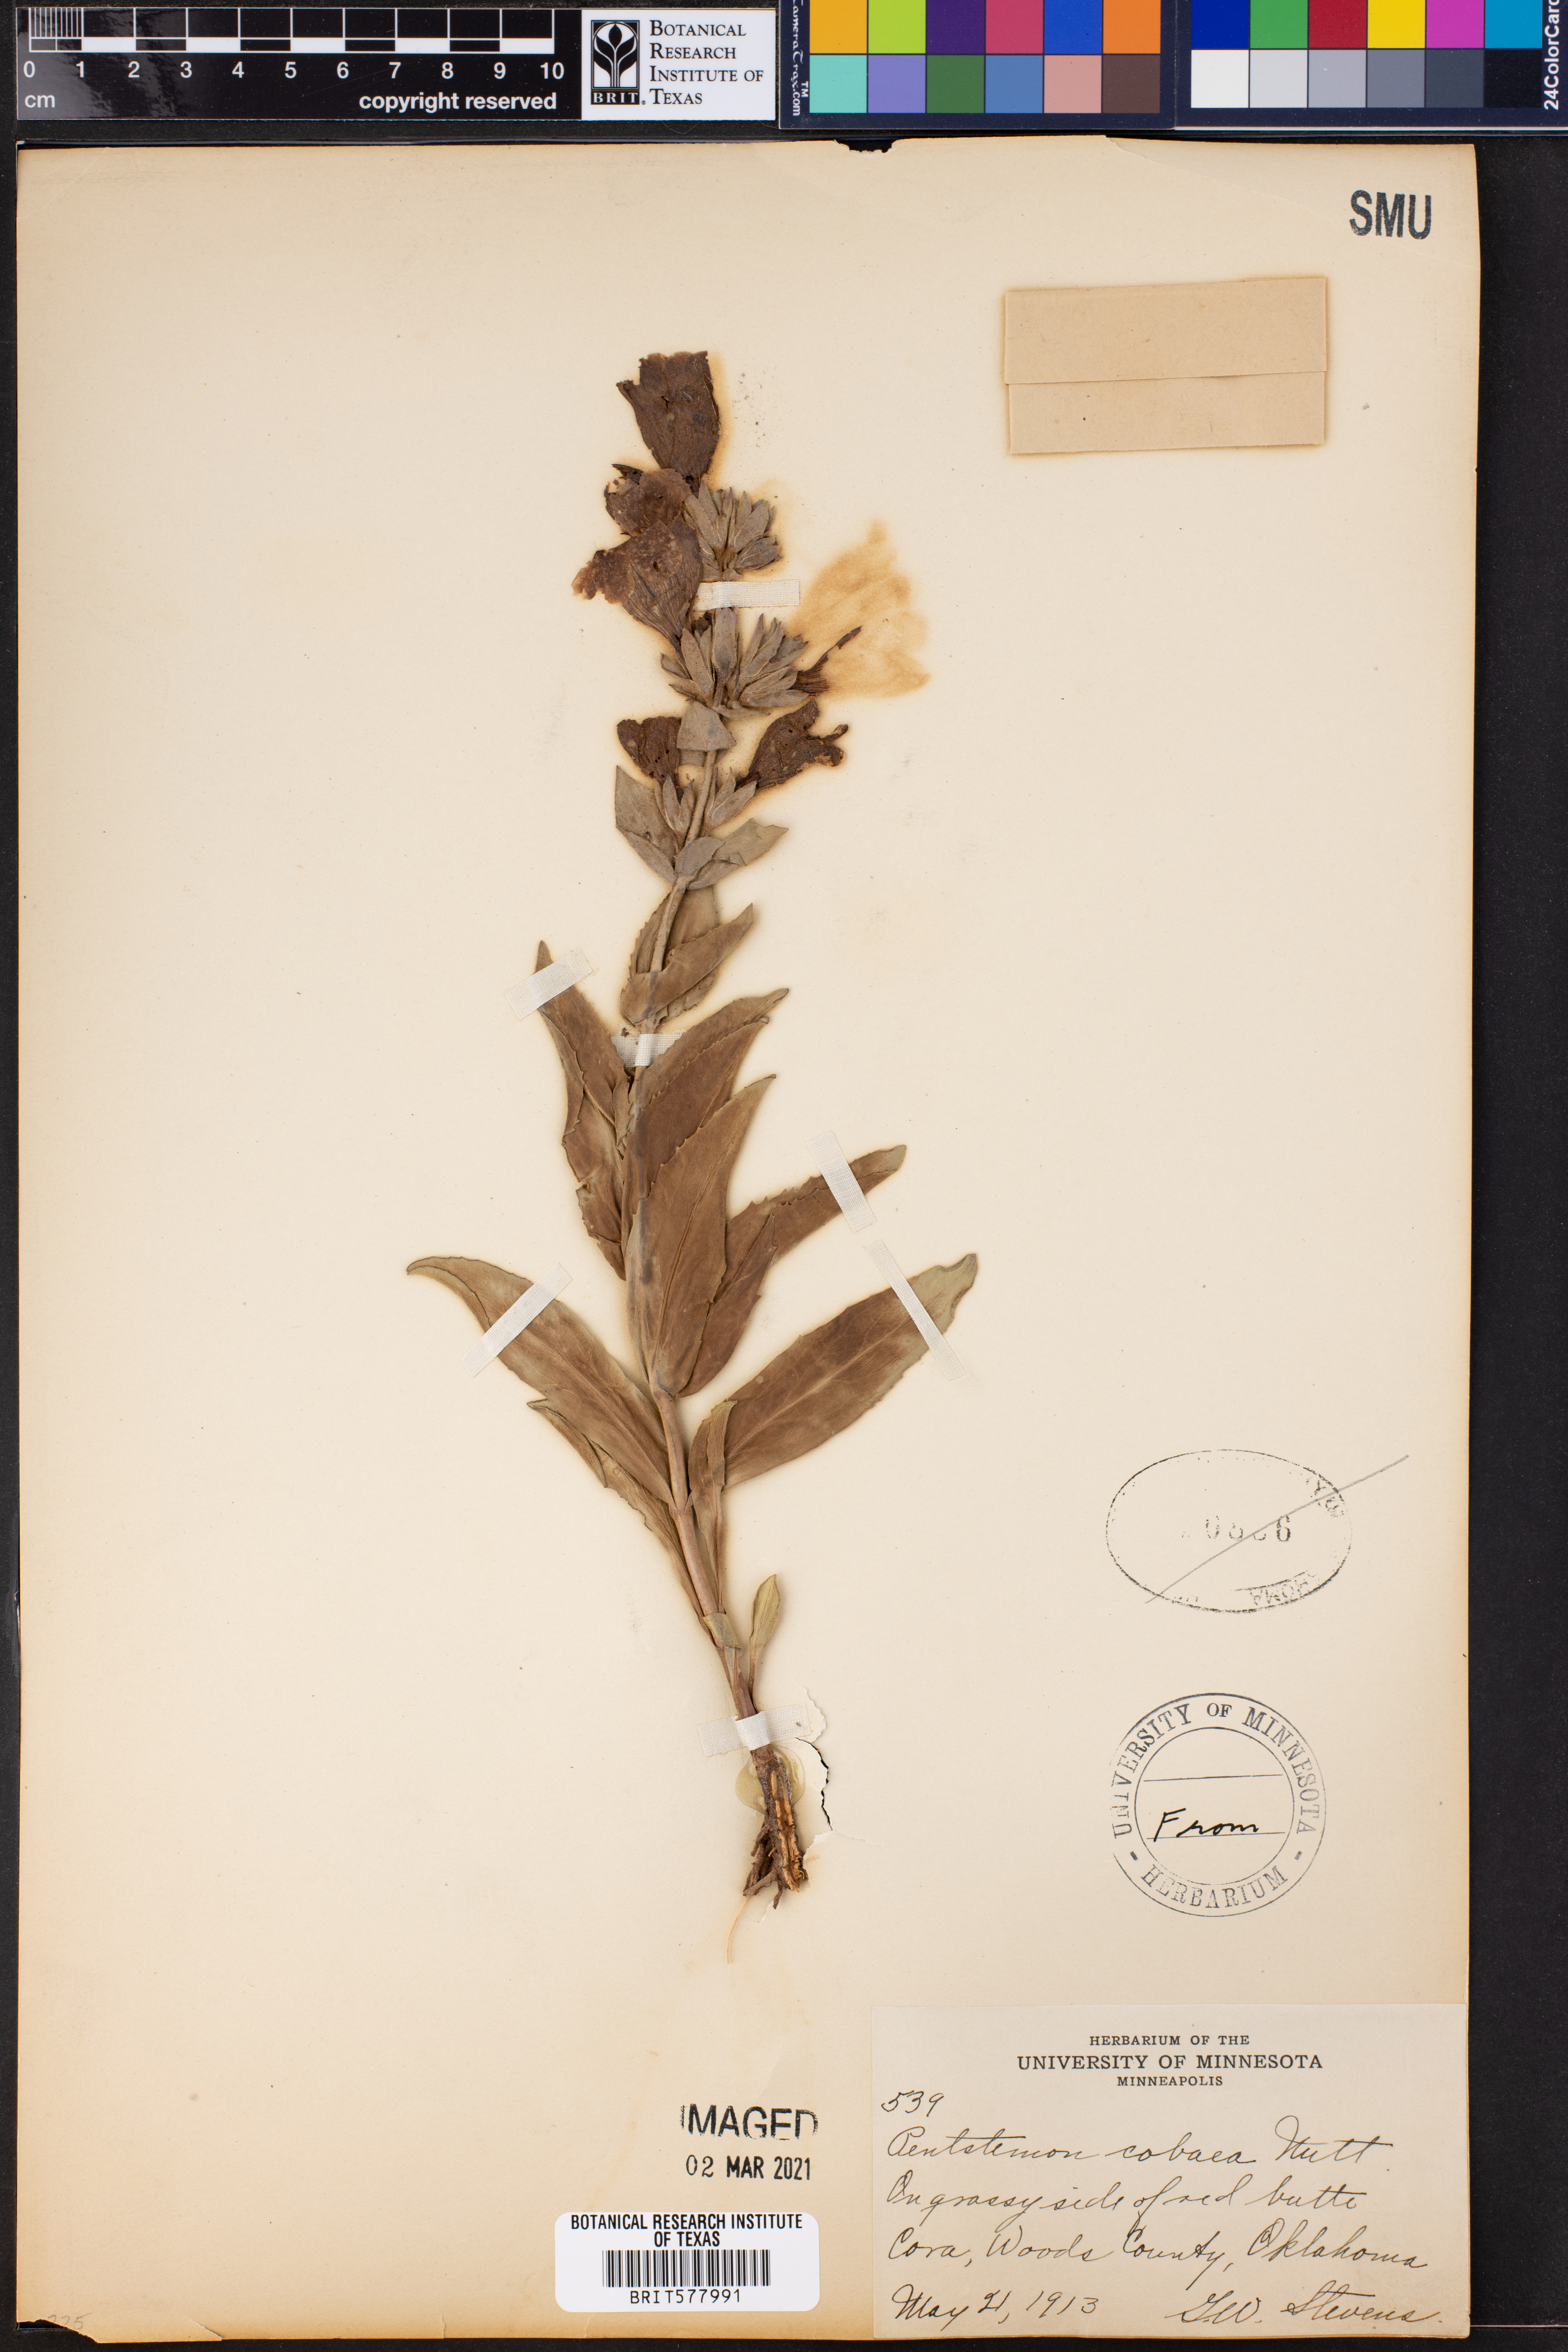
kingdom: Plantae
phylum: Tracheophyta
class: Magnoliopsida
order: Lamiales
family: Plantaginaceae
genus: Penstemon
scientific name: Penstemon cobaea
